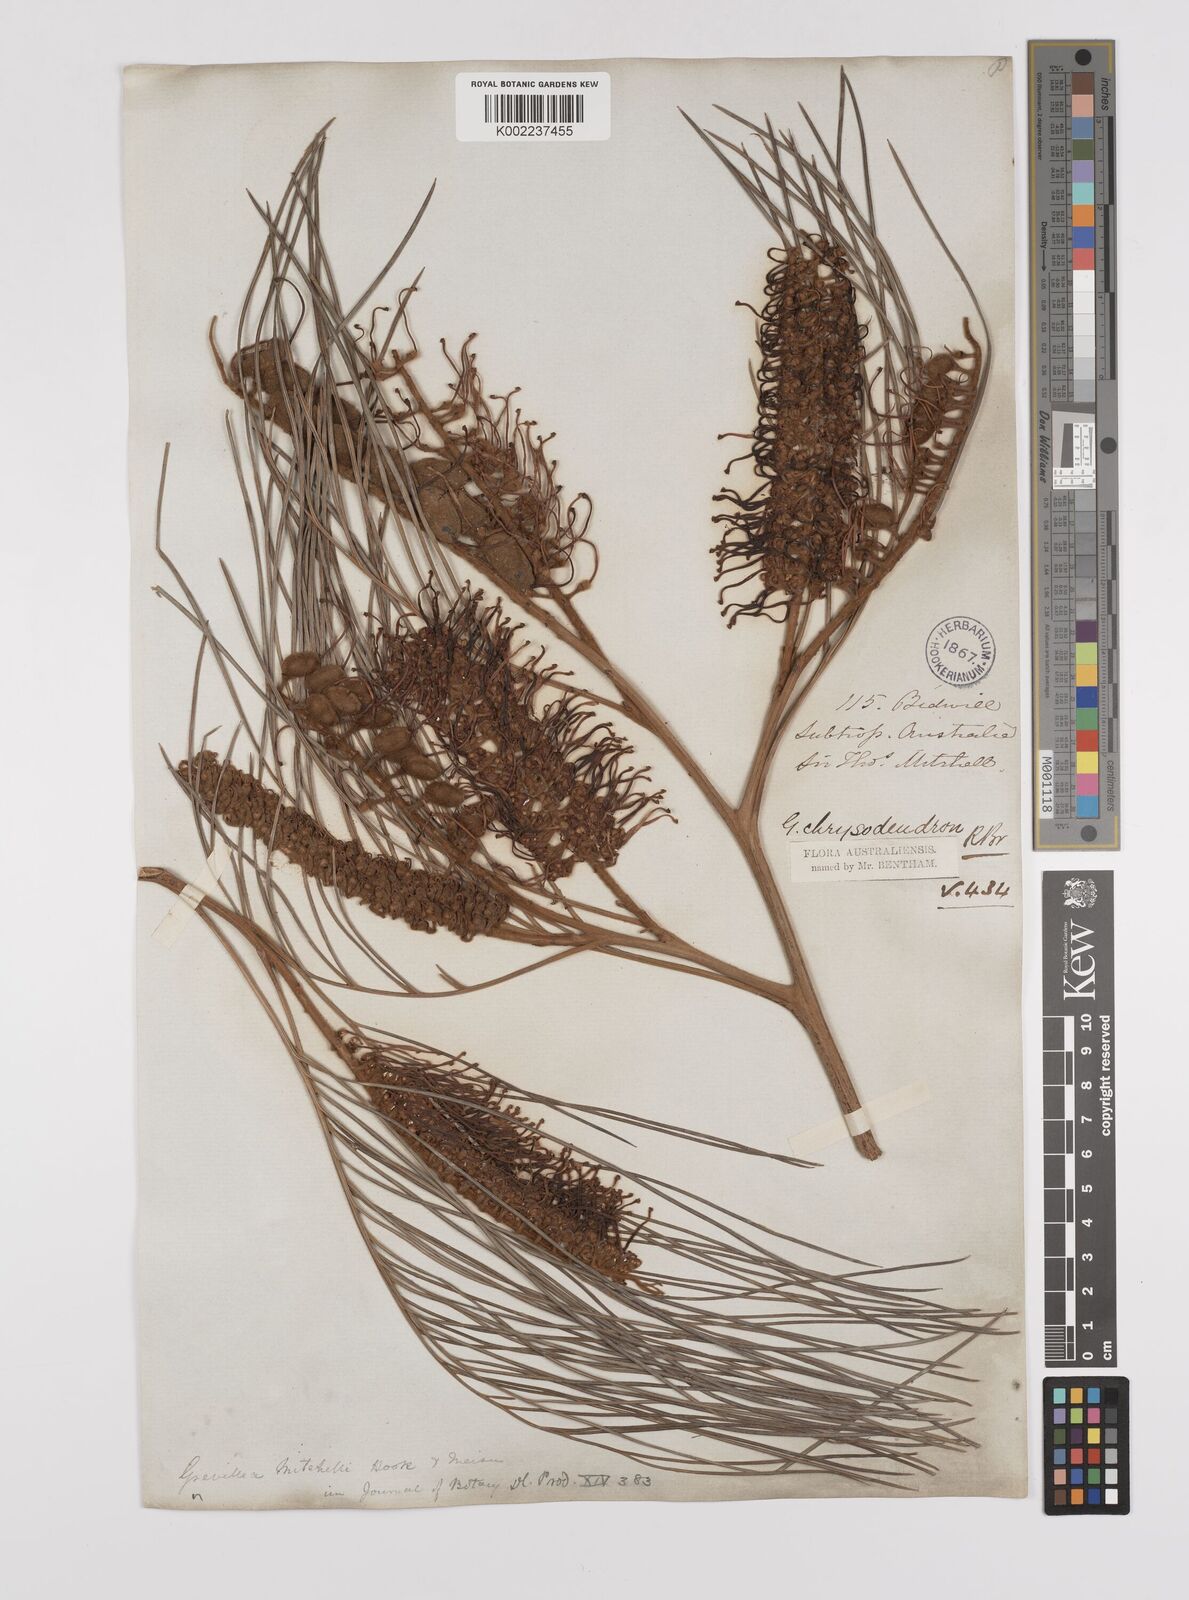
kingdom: Plantae
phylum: Tracheophyta
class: Magnoliopsida
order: Proteales
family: Proteaceae
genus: Grevillea
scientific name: Grevillea pteridifolia
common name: Golden grevillea
